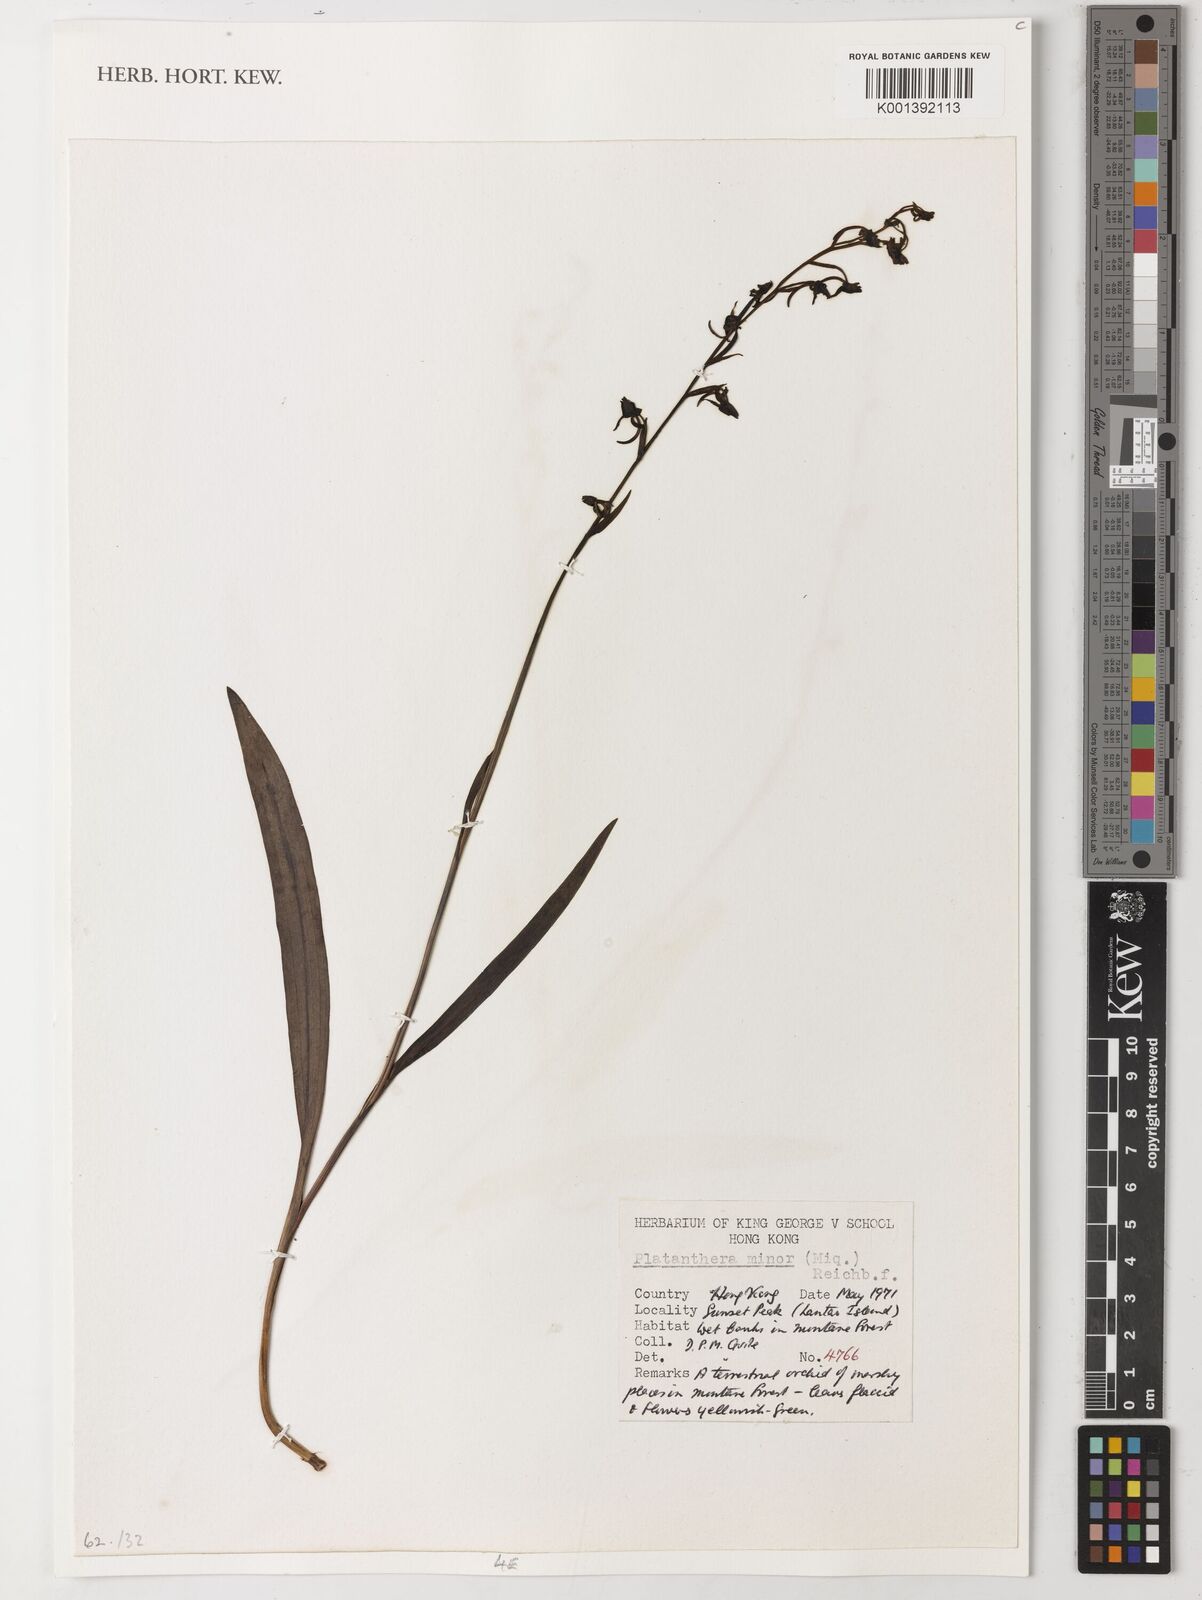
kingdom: Plantae
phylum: Tracheophyta
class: Liliopsida
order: Asparagales
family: Orchidaceae
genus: Platanthera
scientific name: Platanthera minor
